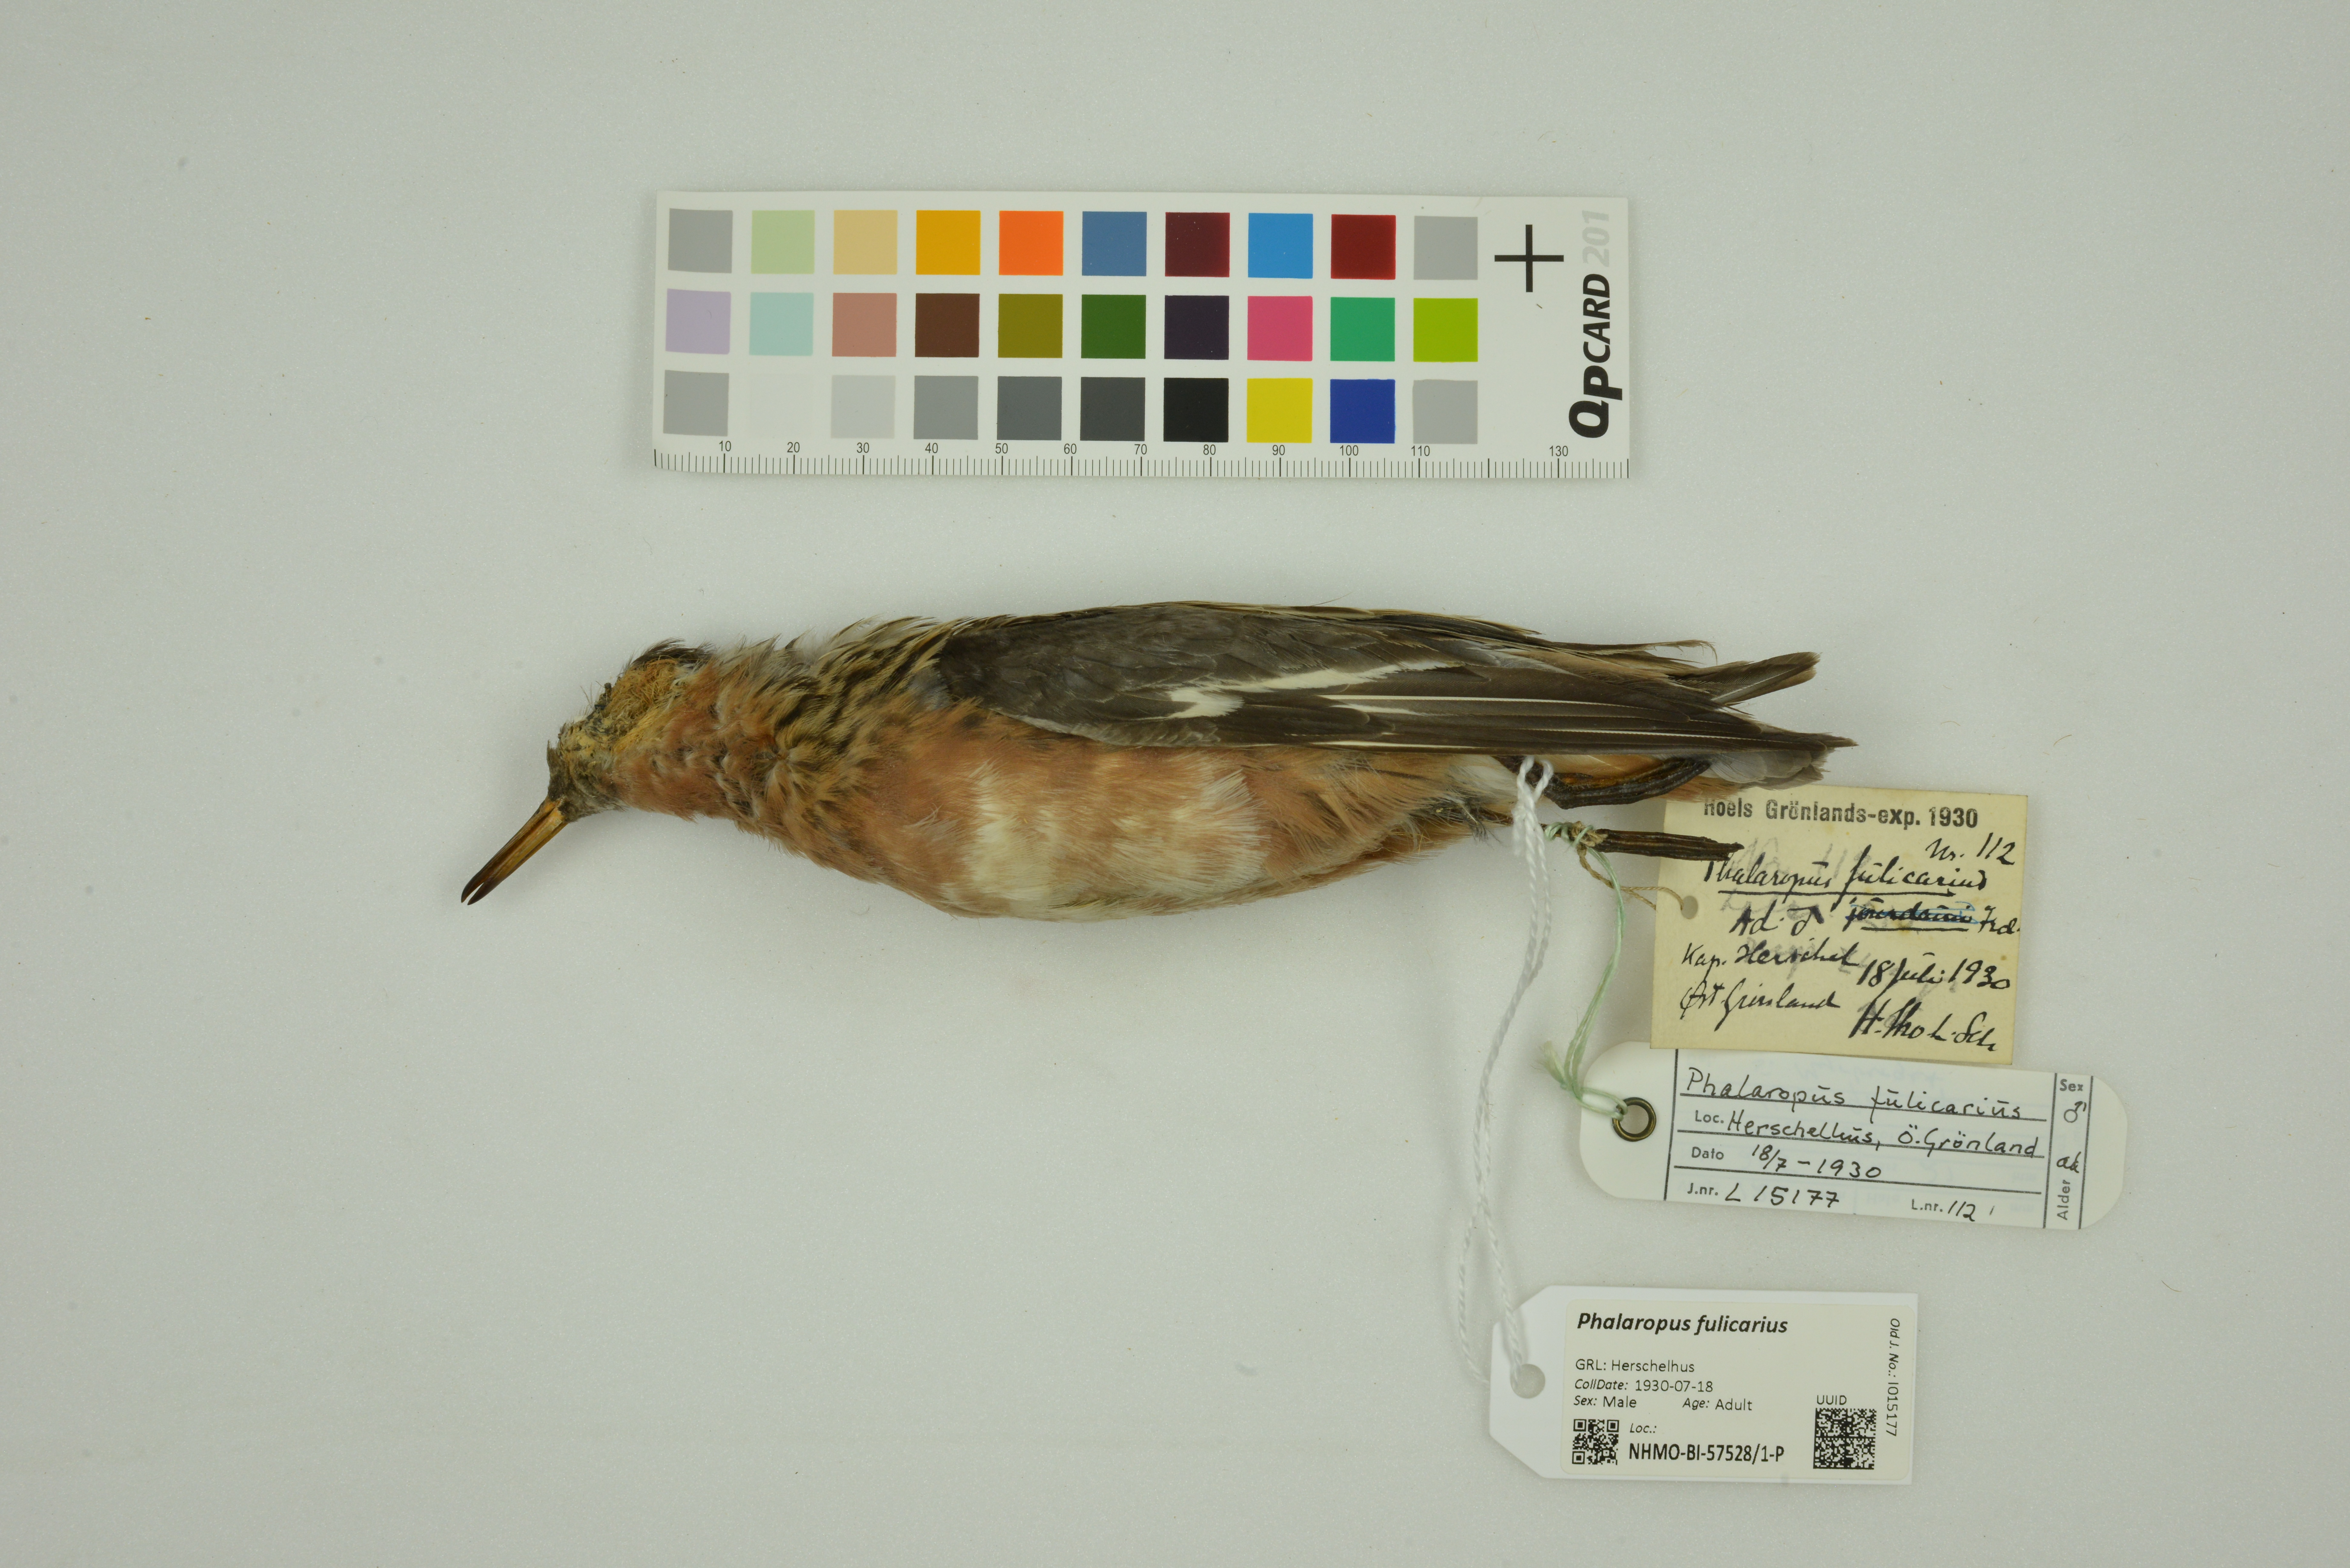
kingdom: Animalia
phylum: Chordata
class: Aves
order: Charadriiformes
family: Scolopacidae
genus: Phalaropus
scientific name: Phalaropus fulicarius
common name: Red phalarope
